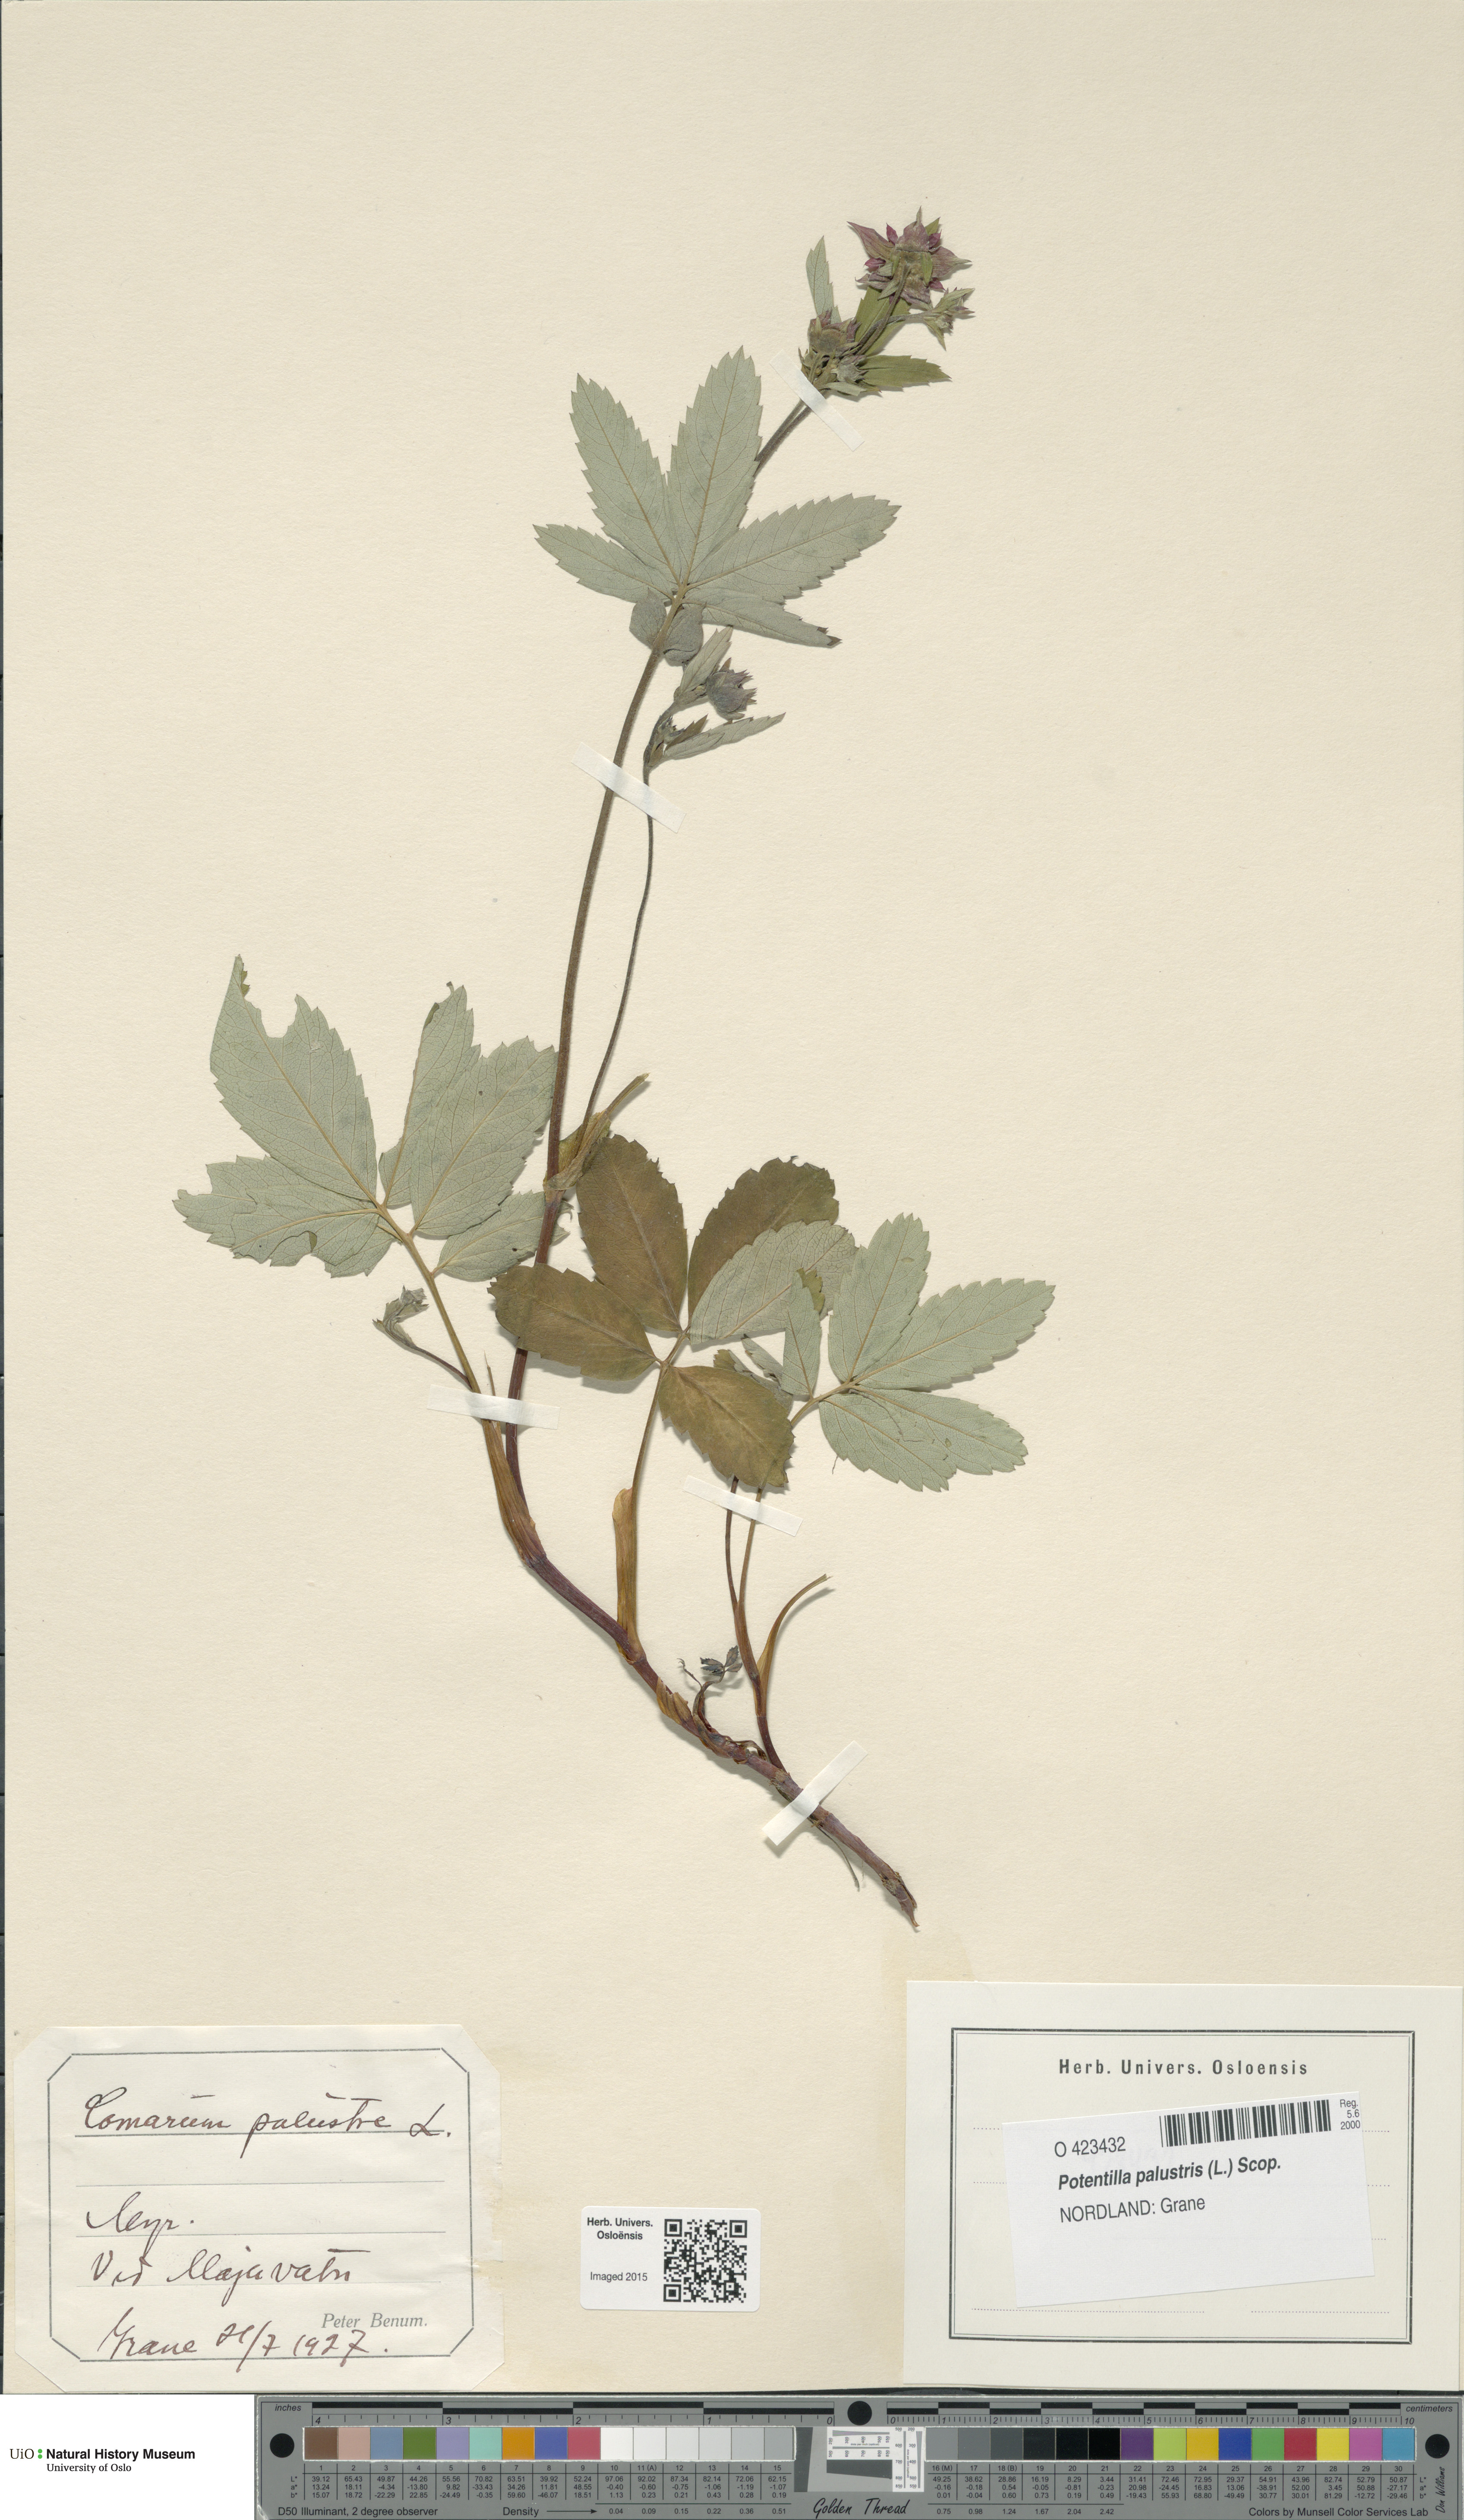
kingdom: Plantae
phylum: Tracheophyta
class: Magnoliopsida
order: Rosales
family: Rosaceae
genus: Comarum
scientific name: Comarum palustre
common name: Marsh cinquefoil
